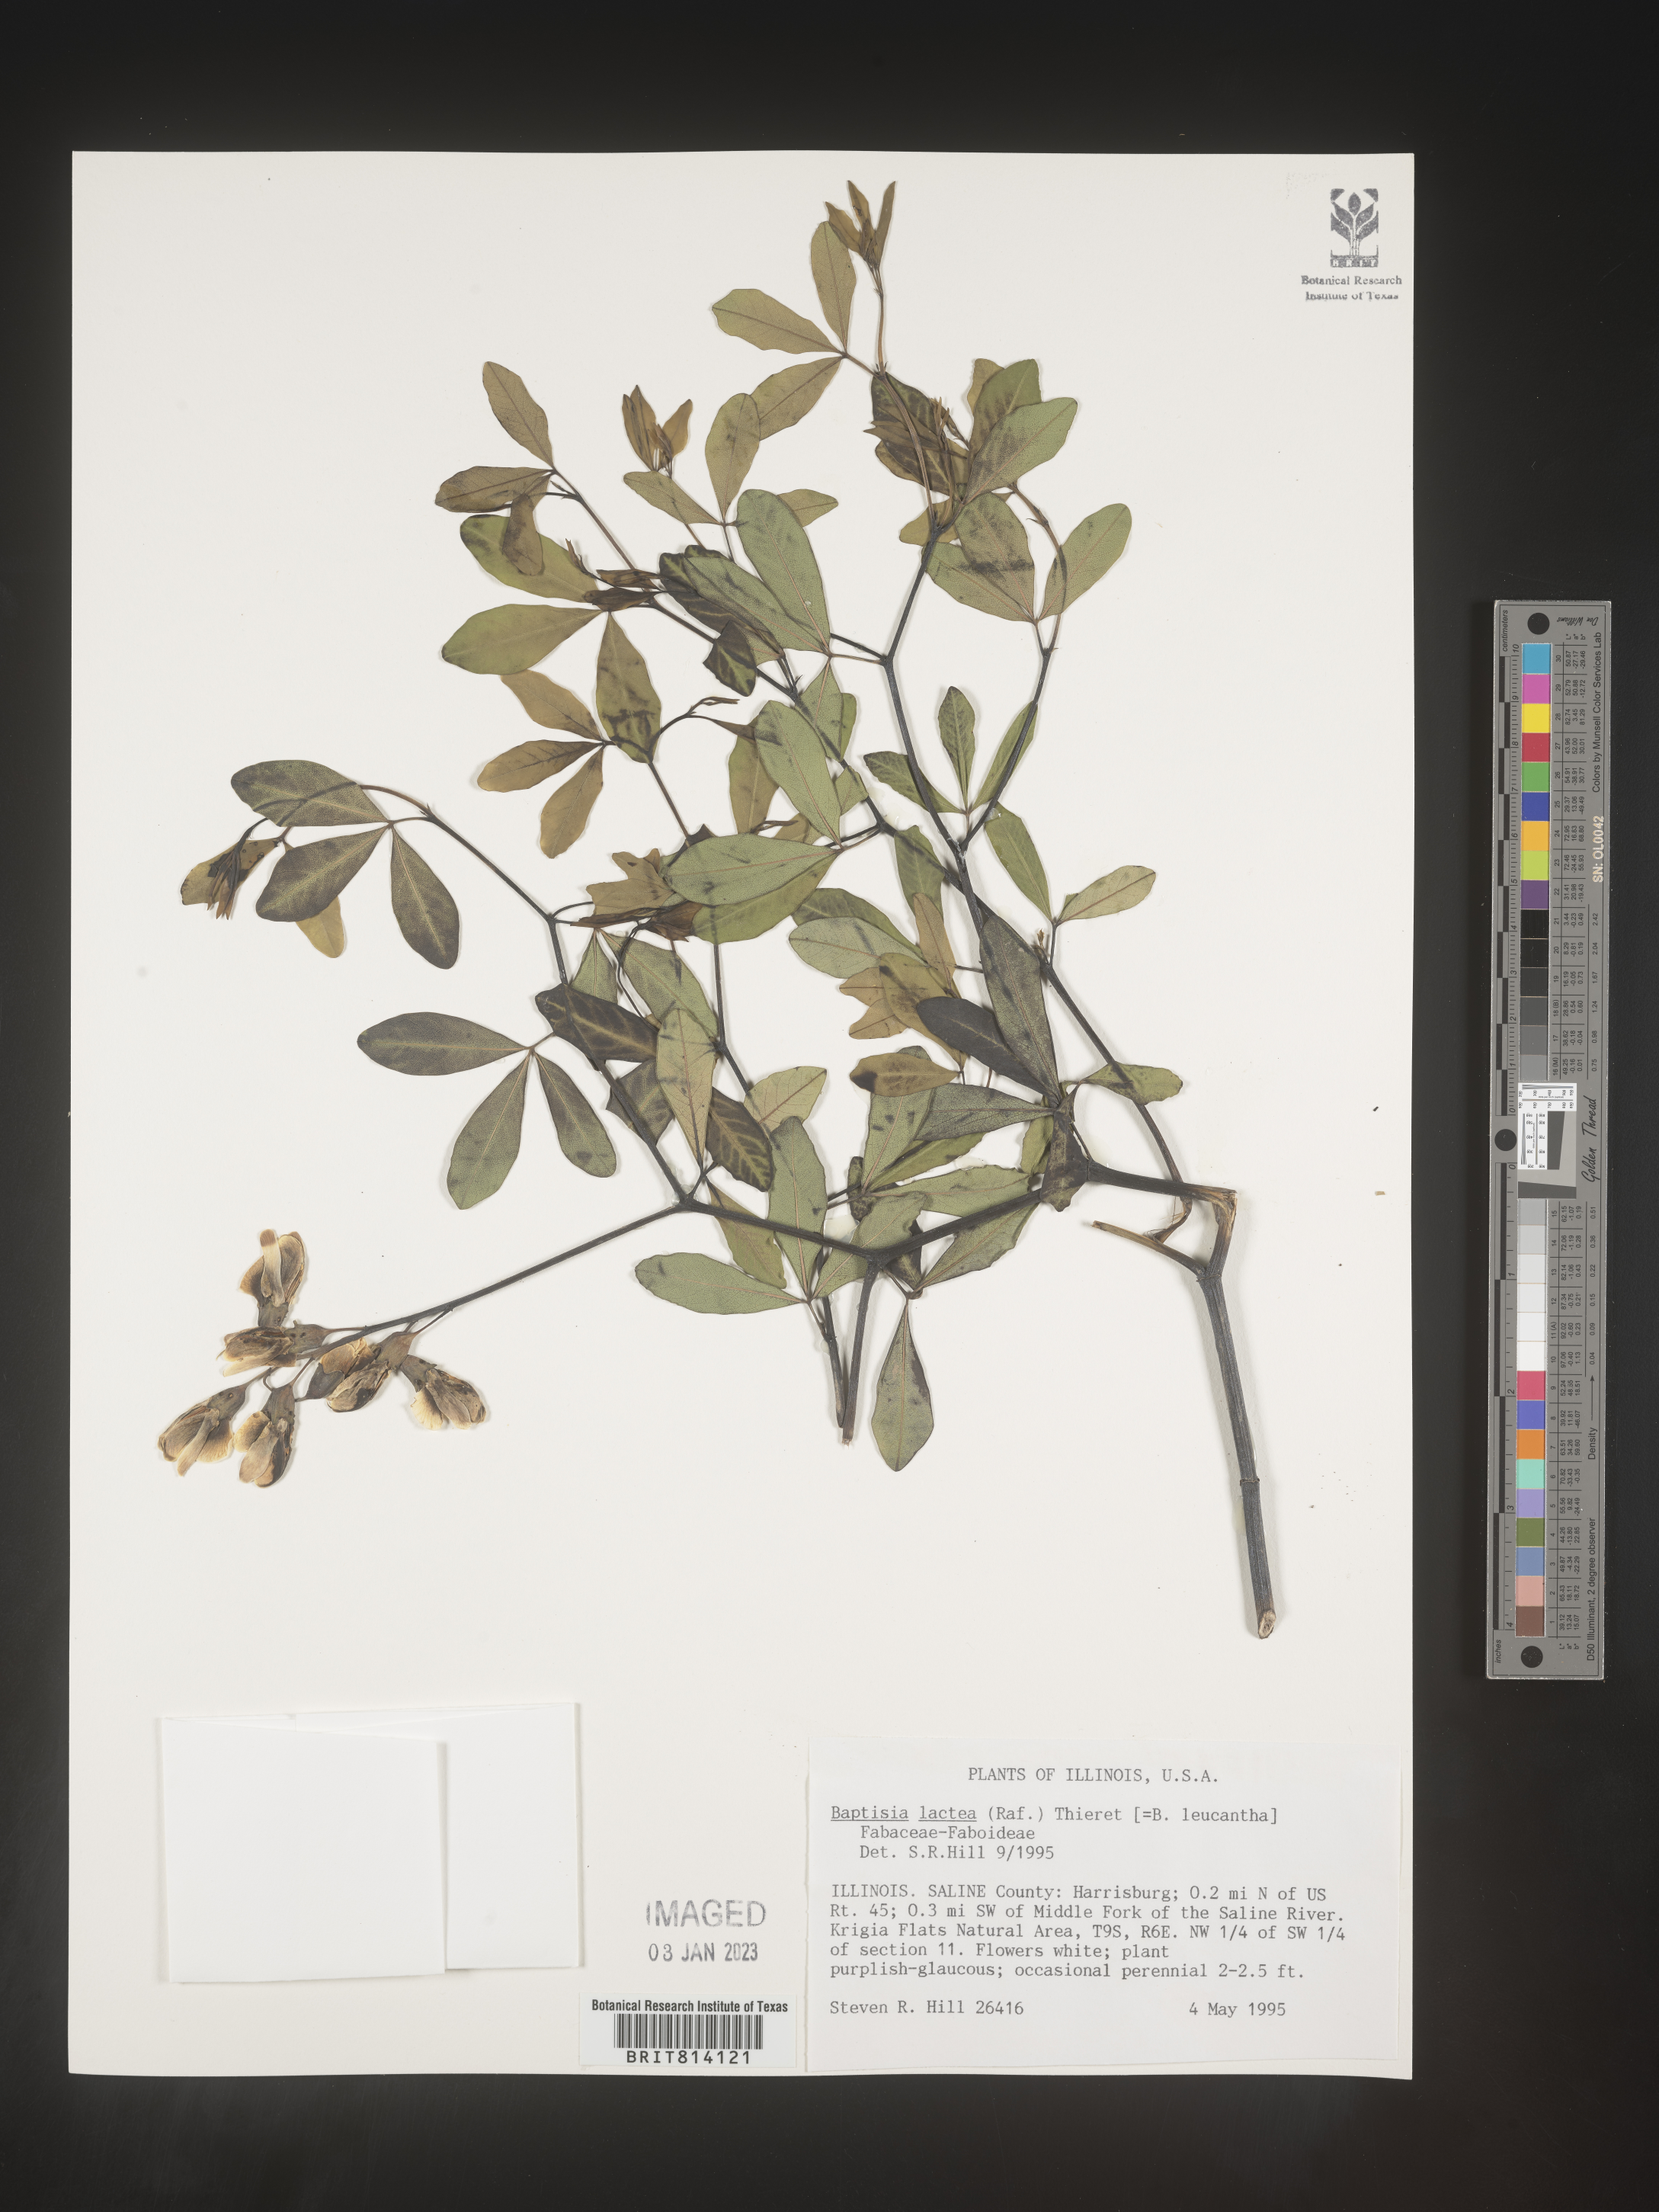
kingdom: Plantae
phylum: Tracheophyta
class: Magnoliopsida
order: Fabales
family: Fabaceae
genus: Baptisia
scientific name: Baptisia
